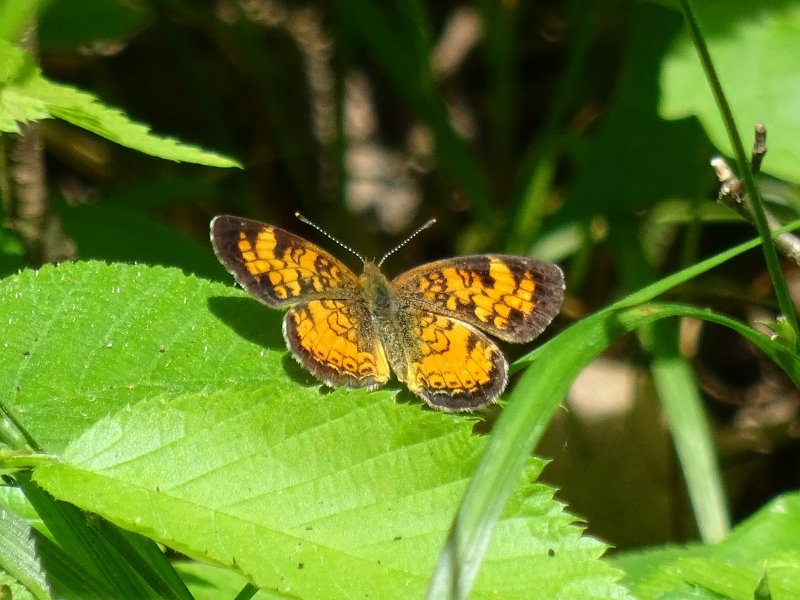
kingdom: Animalia
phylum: Arthropoda
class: Insecta
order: Lepidoptera
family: Nymphalidae
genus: Phyciodes
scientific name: Phyciodes tharos
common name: Northern Crescent
